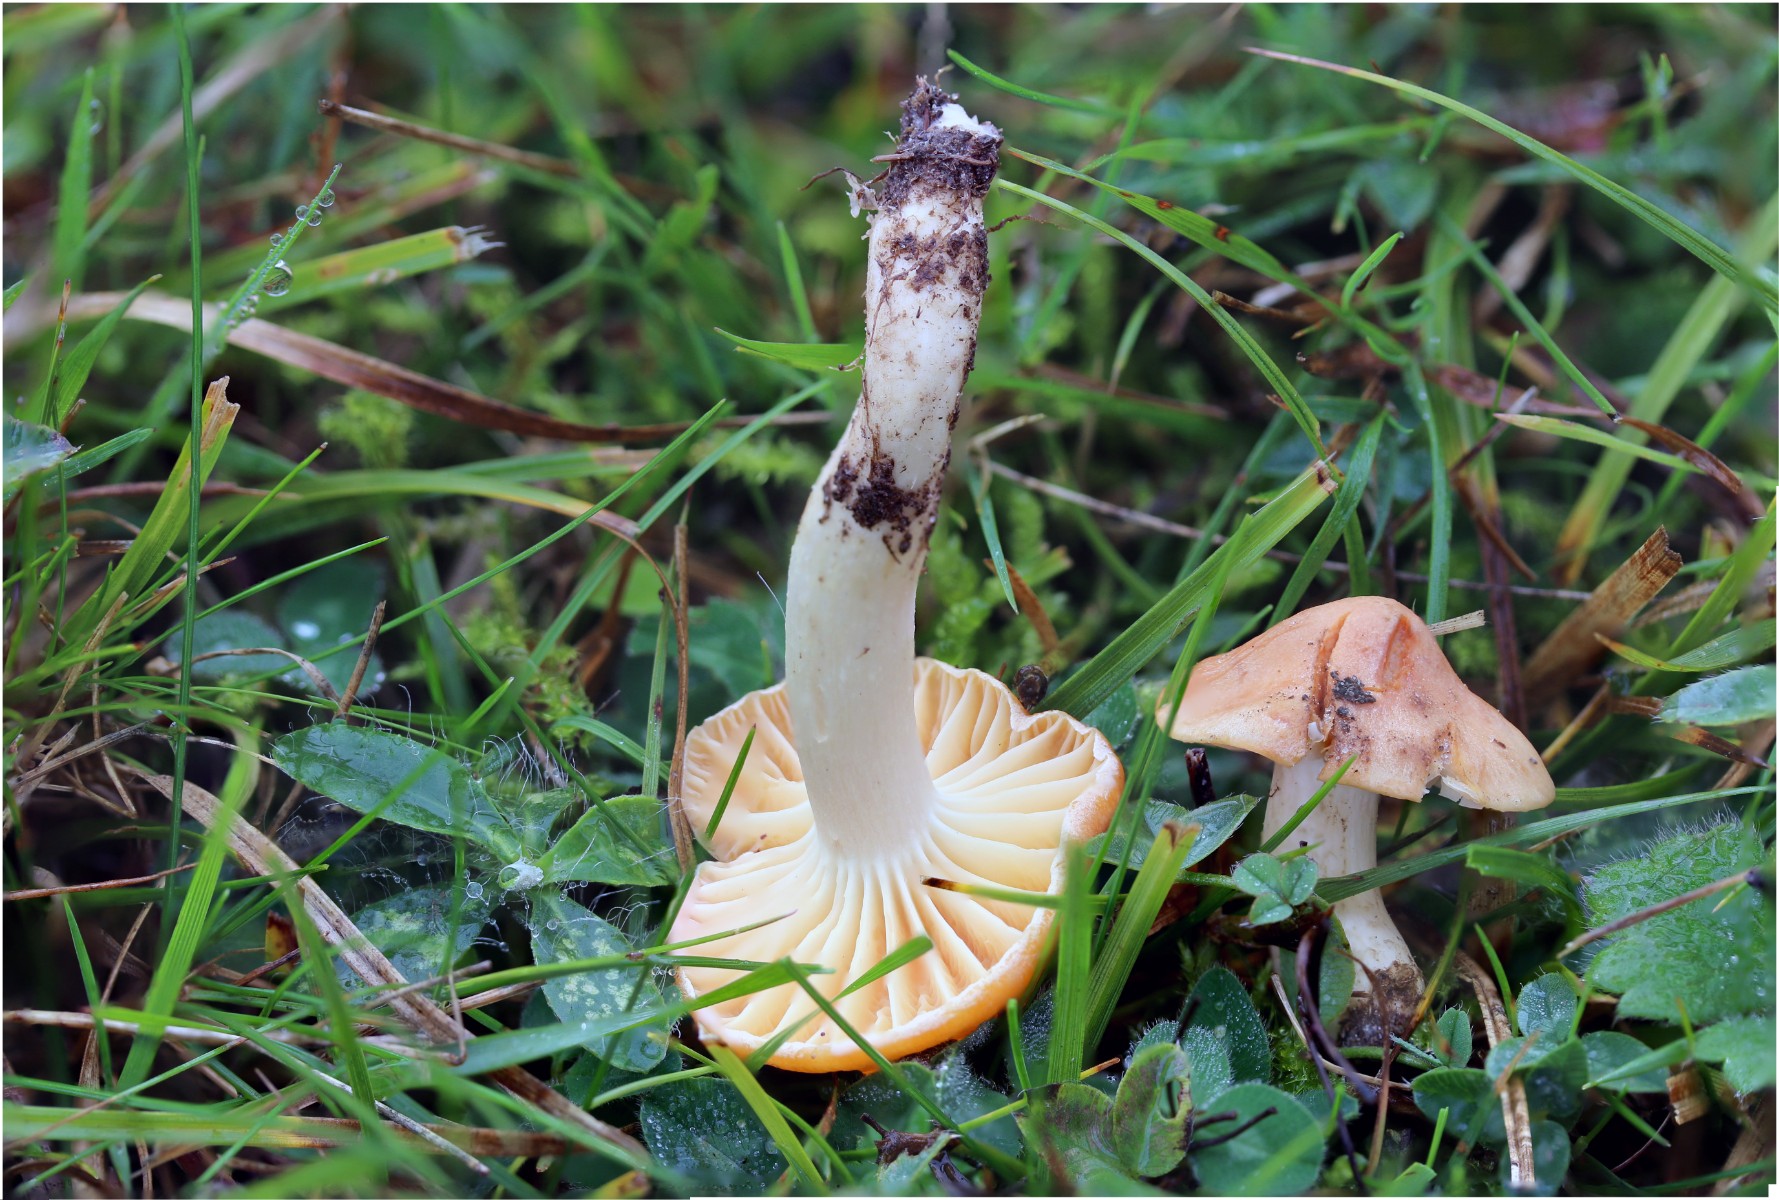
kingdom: Fungi
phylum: Basidiomycota
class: Agaricomycetes
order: Agaricales
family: Hygrophoraceae
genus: Cuphophyllus
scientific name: Cuphophyllus pratensis
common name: eng-vokshat
